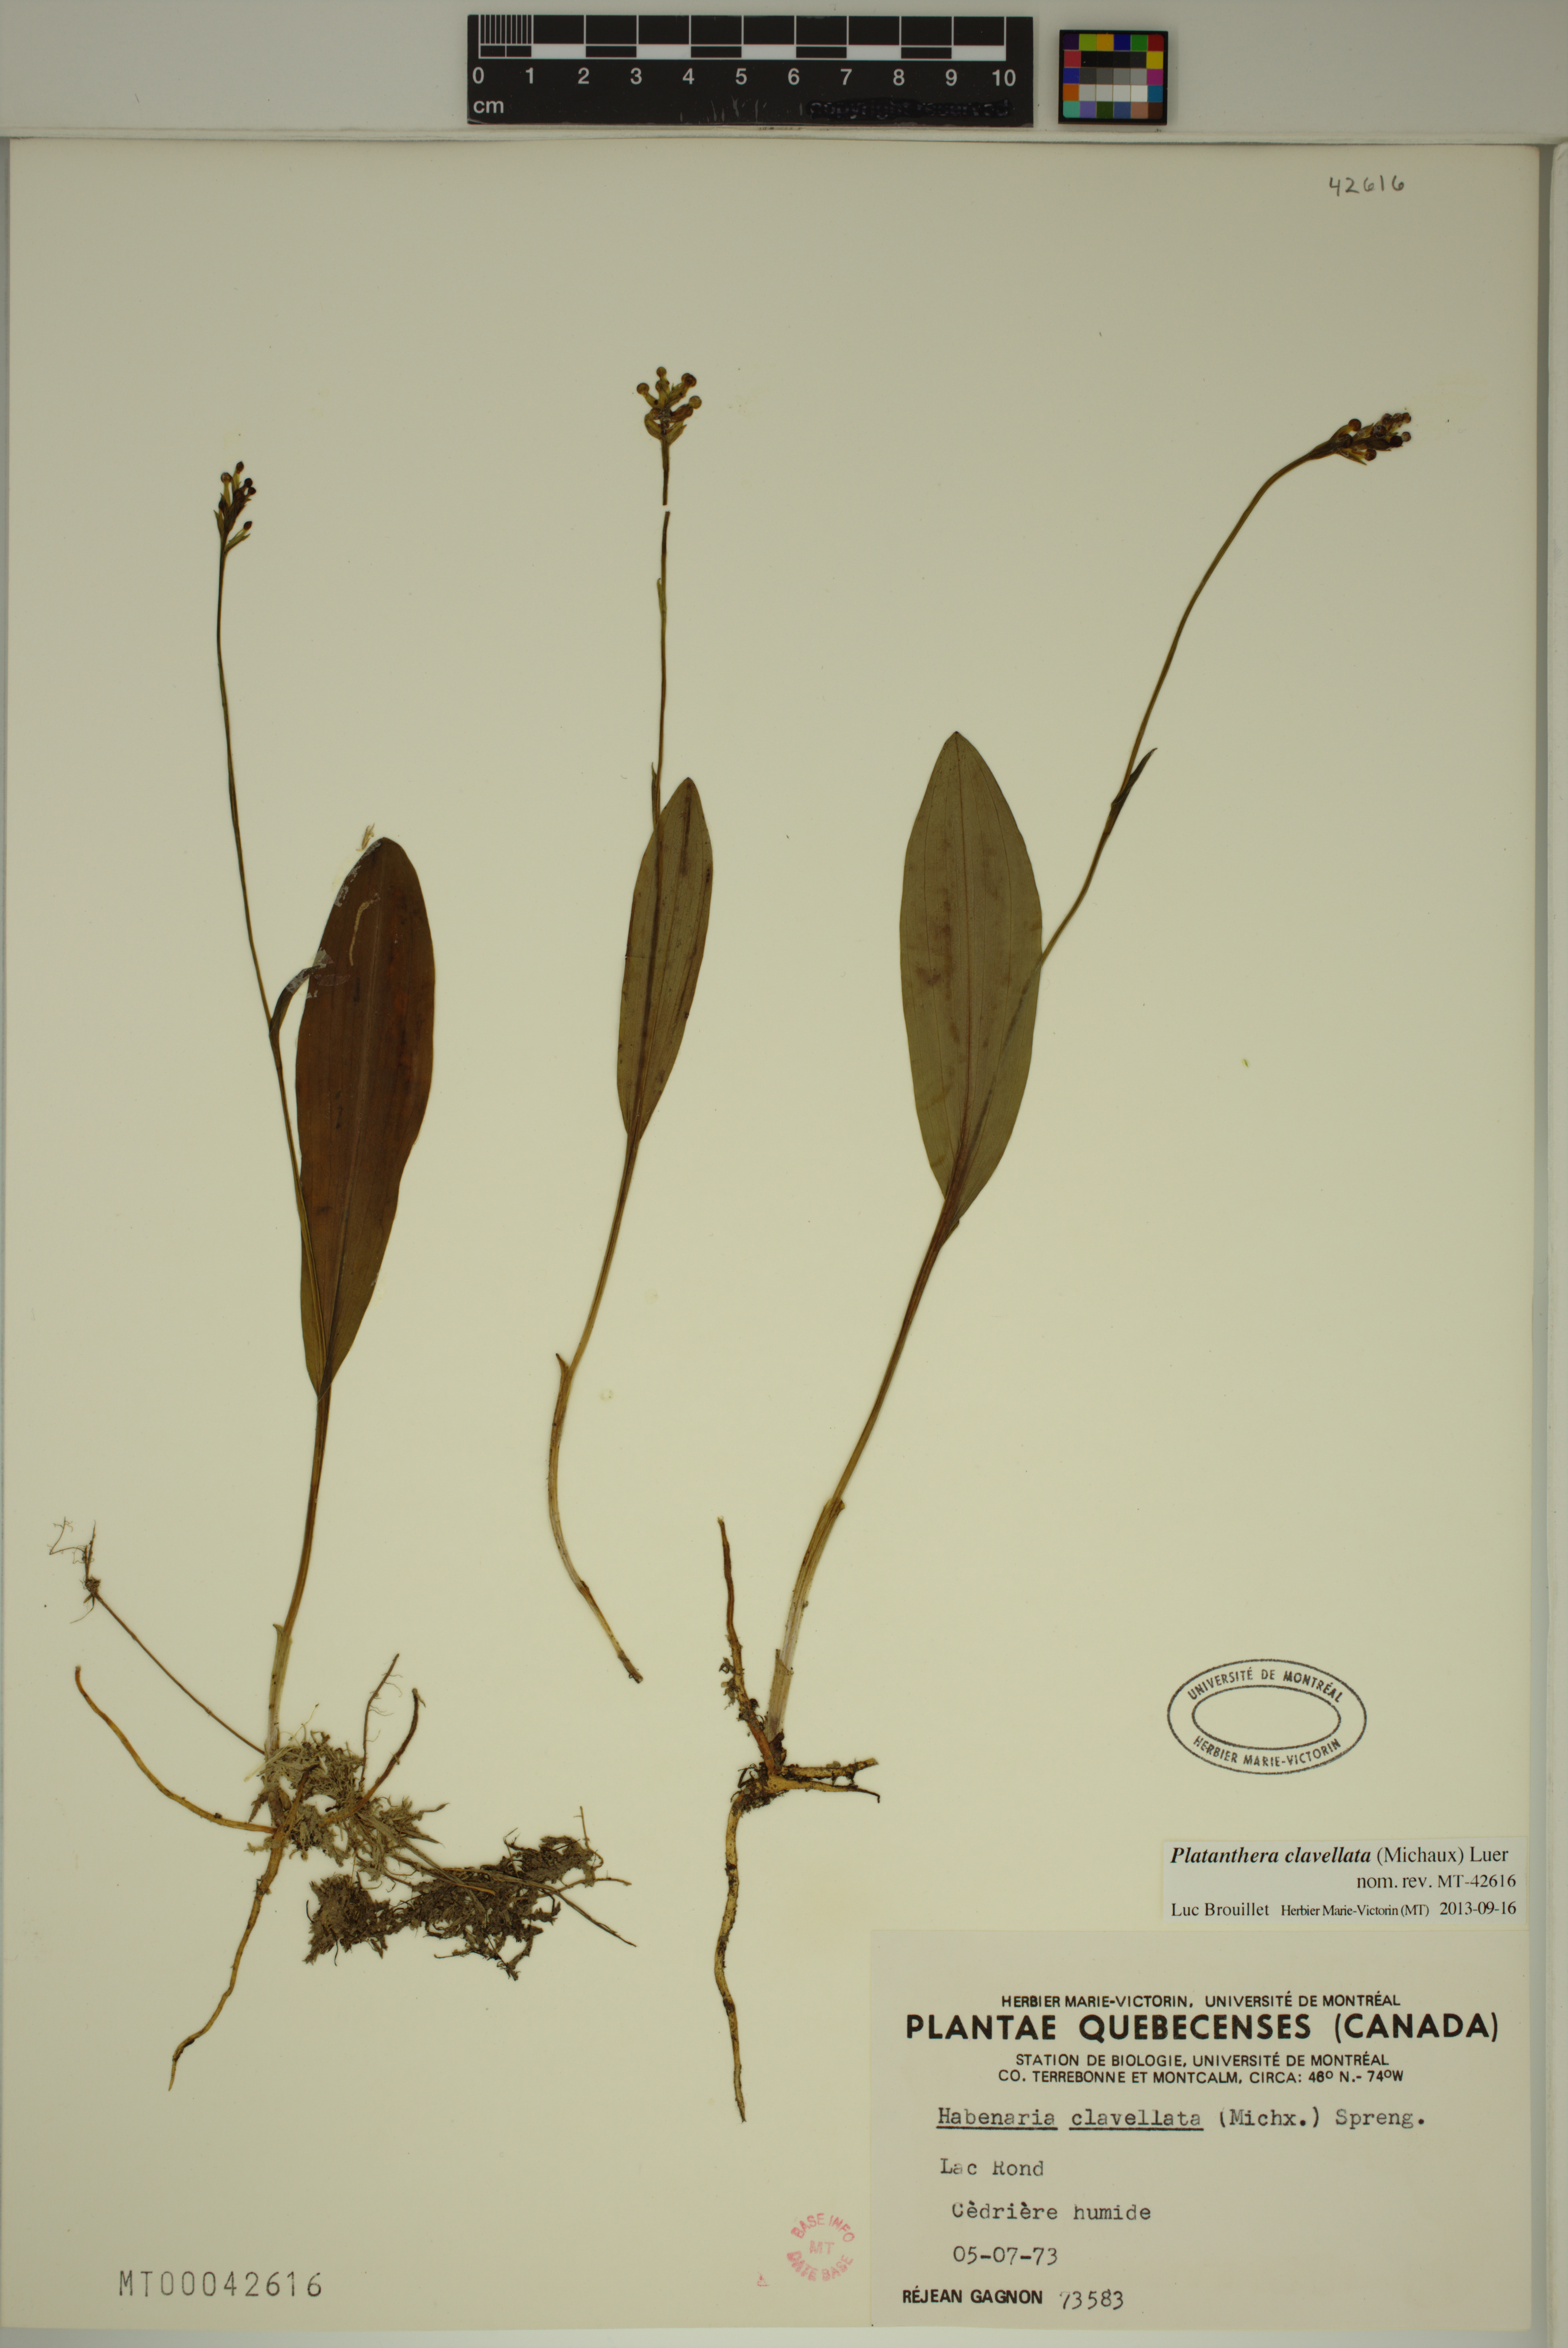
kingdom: Plantae
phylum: Tracheophyta
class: Liliopsida
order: Asparagales
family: Orchidaceae
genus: Platanthera
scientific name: Platanthera clavellata
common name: Club-spur orchid
